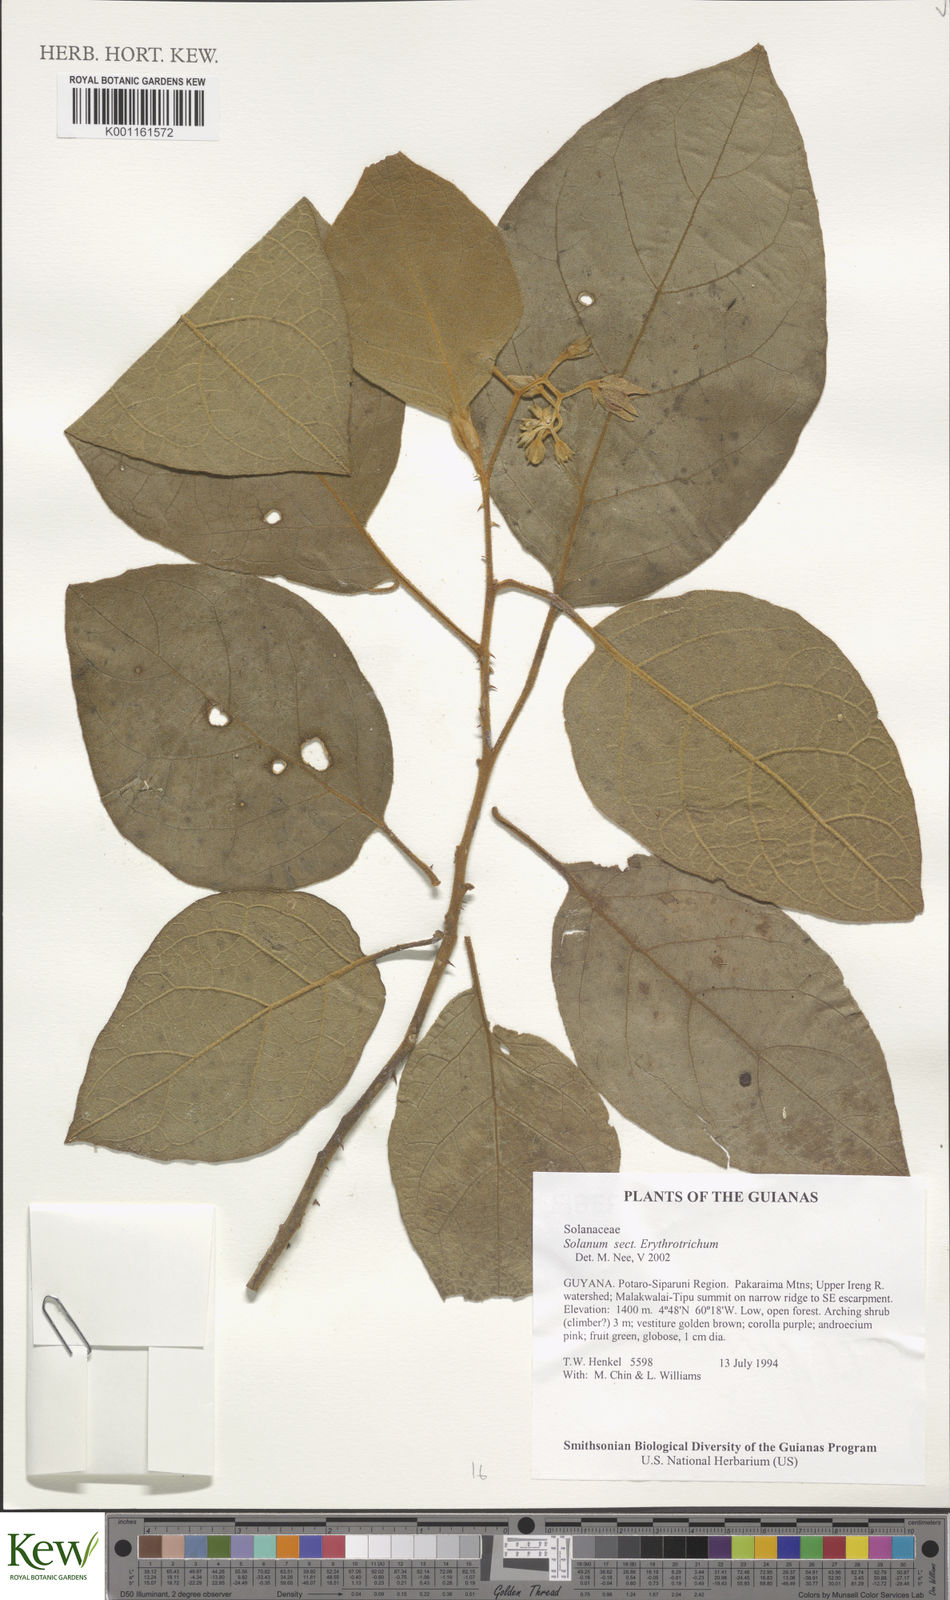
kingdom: Plantae
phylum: Tracheophyta
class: Magnoliopsida
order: Solanales
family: Solanaceae
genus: Solanum
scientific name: Solanum erythrotrichum
